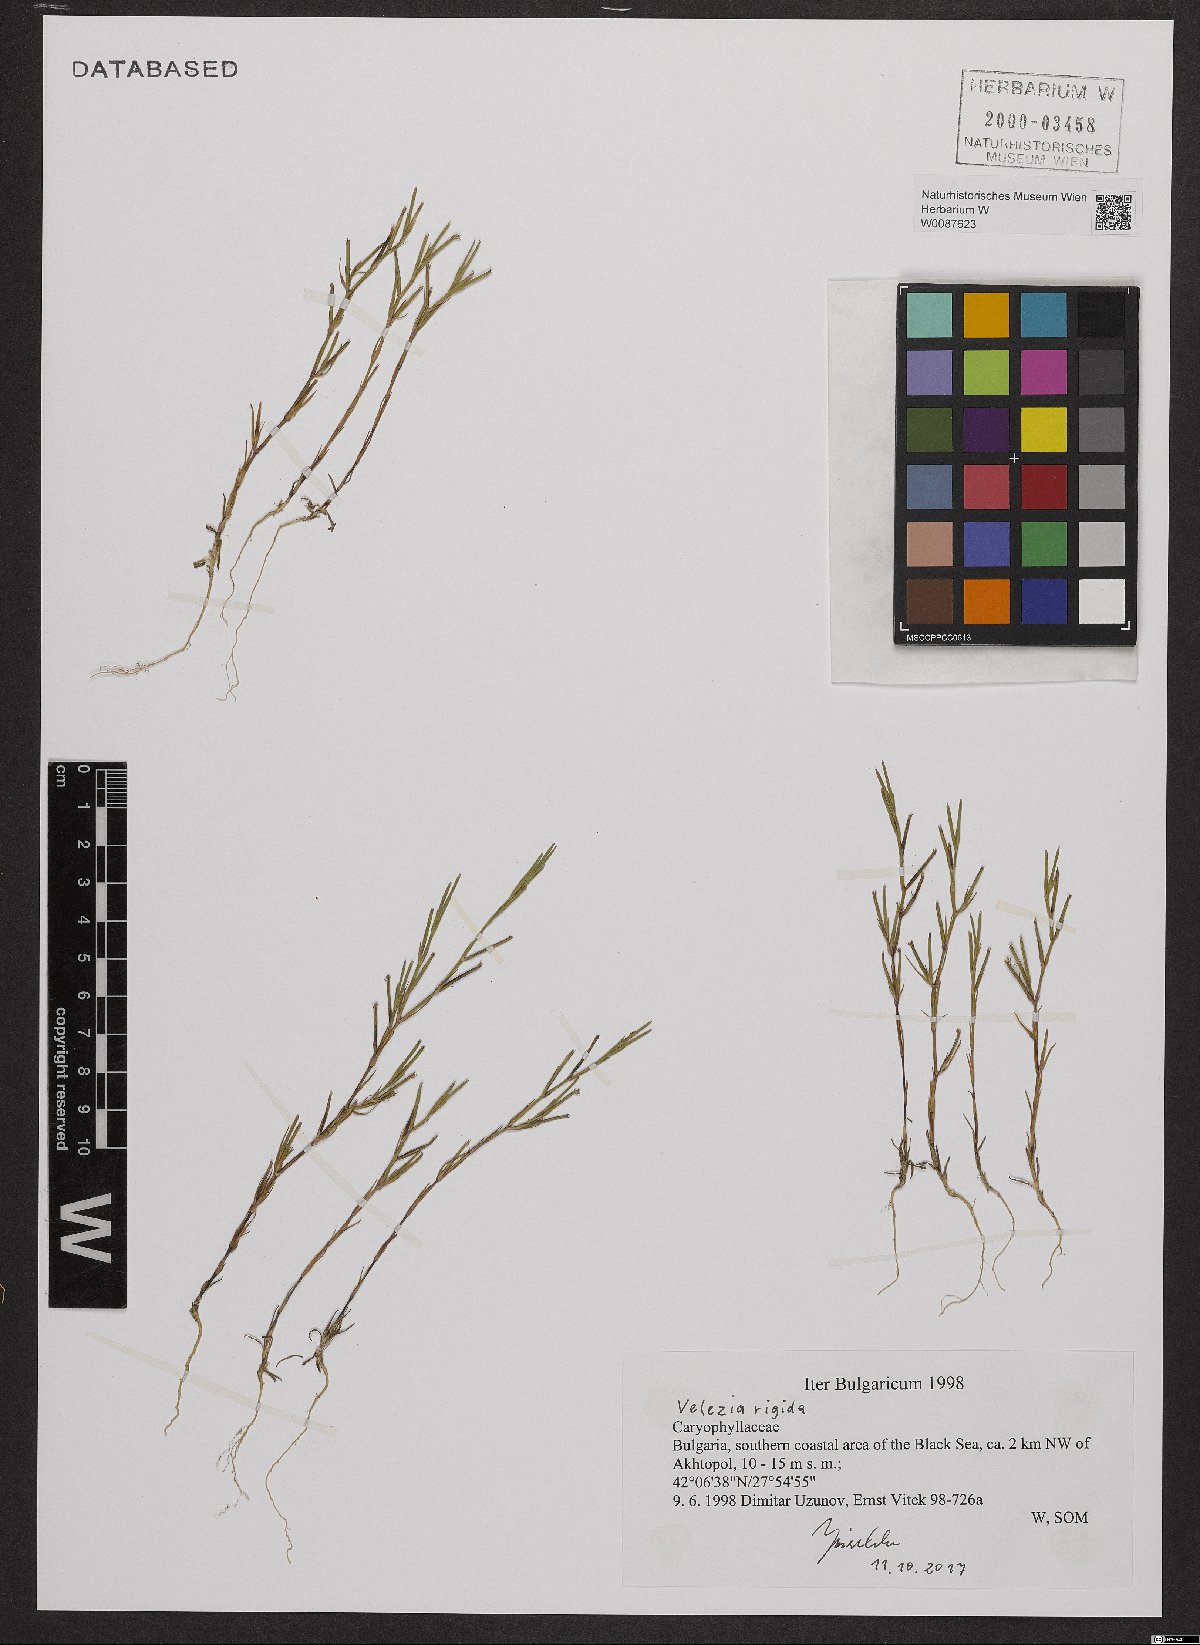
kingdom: Plantae
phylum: Tracheophyta
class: Magnoliopsida
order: Caryophyllales
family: Caryophyllaceae
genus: Dianthus
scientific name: Dianthus nudiflorus
